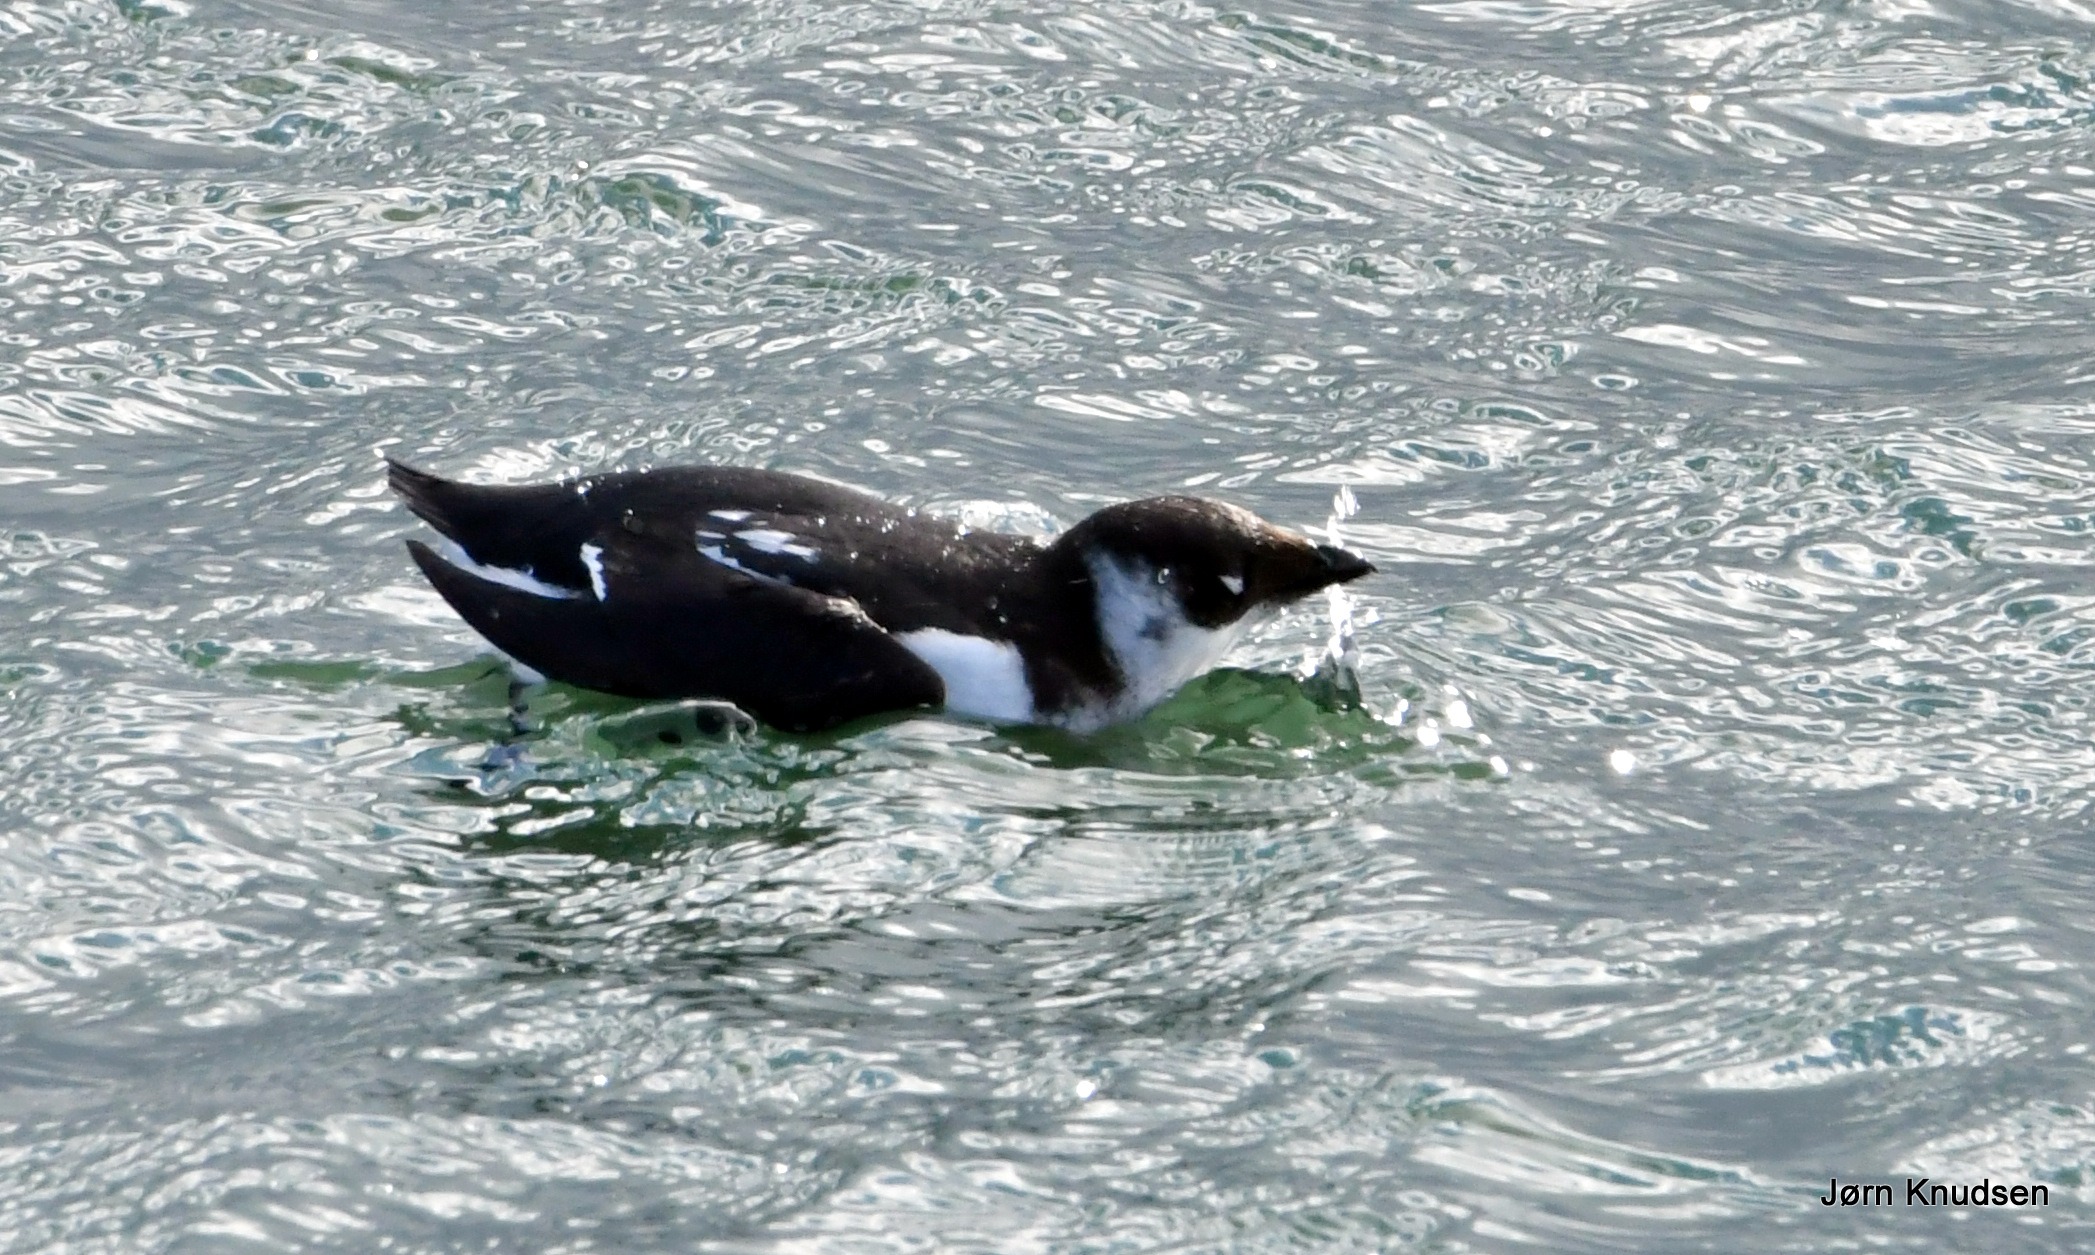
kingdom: Animalia
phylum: Chordata
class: Aves
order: Charadriiformes
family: Alcidae
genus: Alle
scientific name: Alle alle
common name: Søkonge
